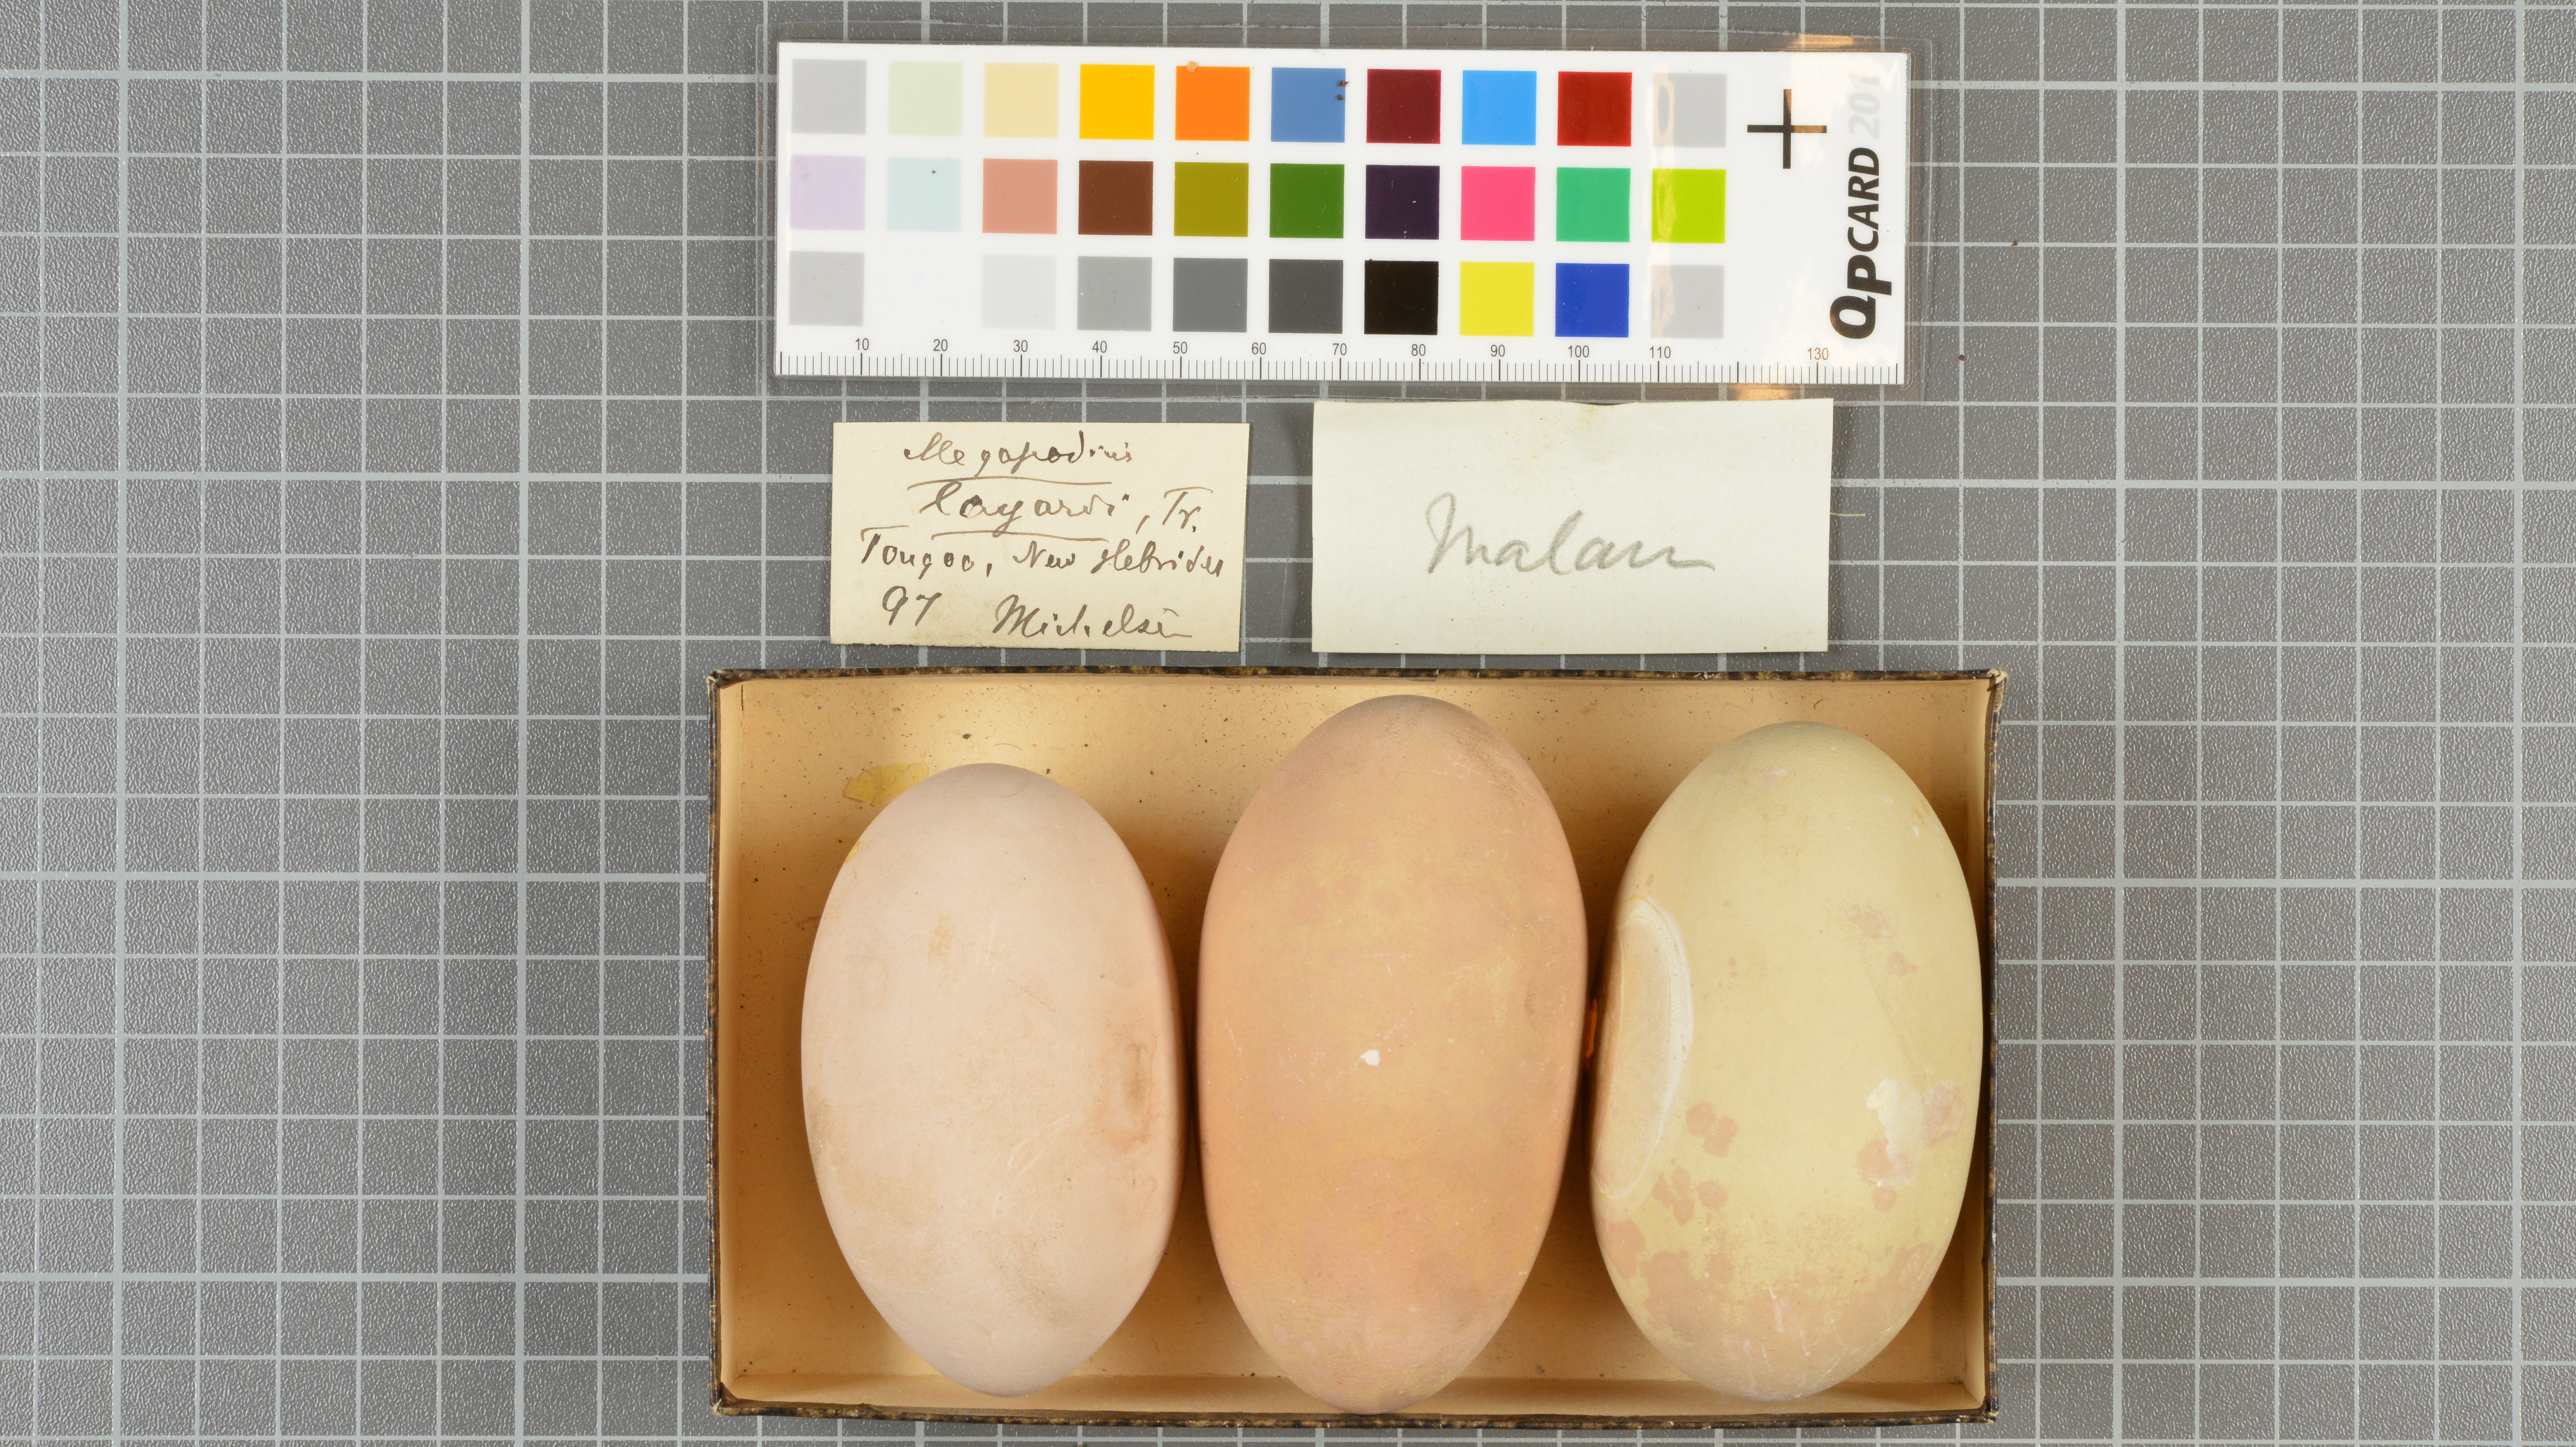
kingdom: Animalia
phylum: Chordata
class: Aves
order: Galliformes
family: Megapodiidae
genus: Megapodius
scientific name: Megapodius layardi
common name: Vanuatu megapode
